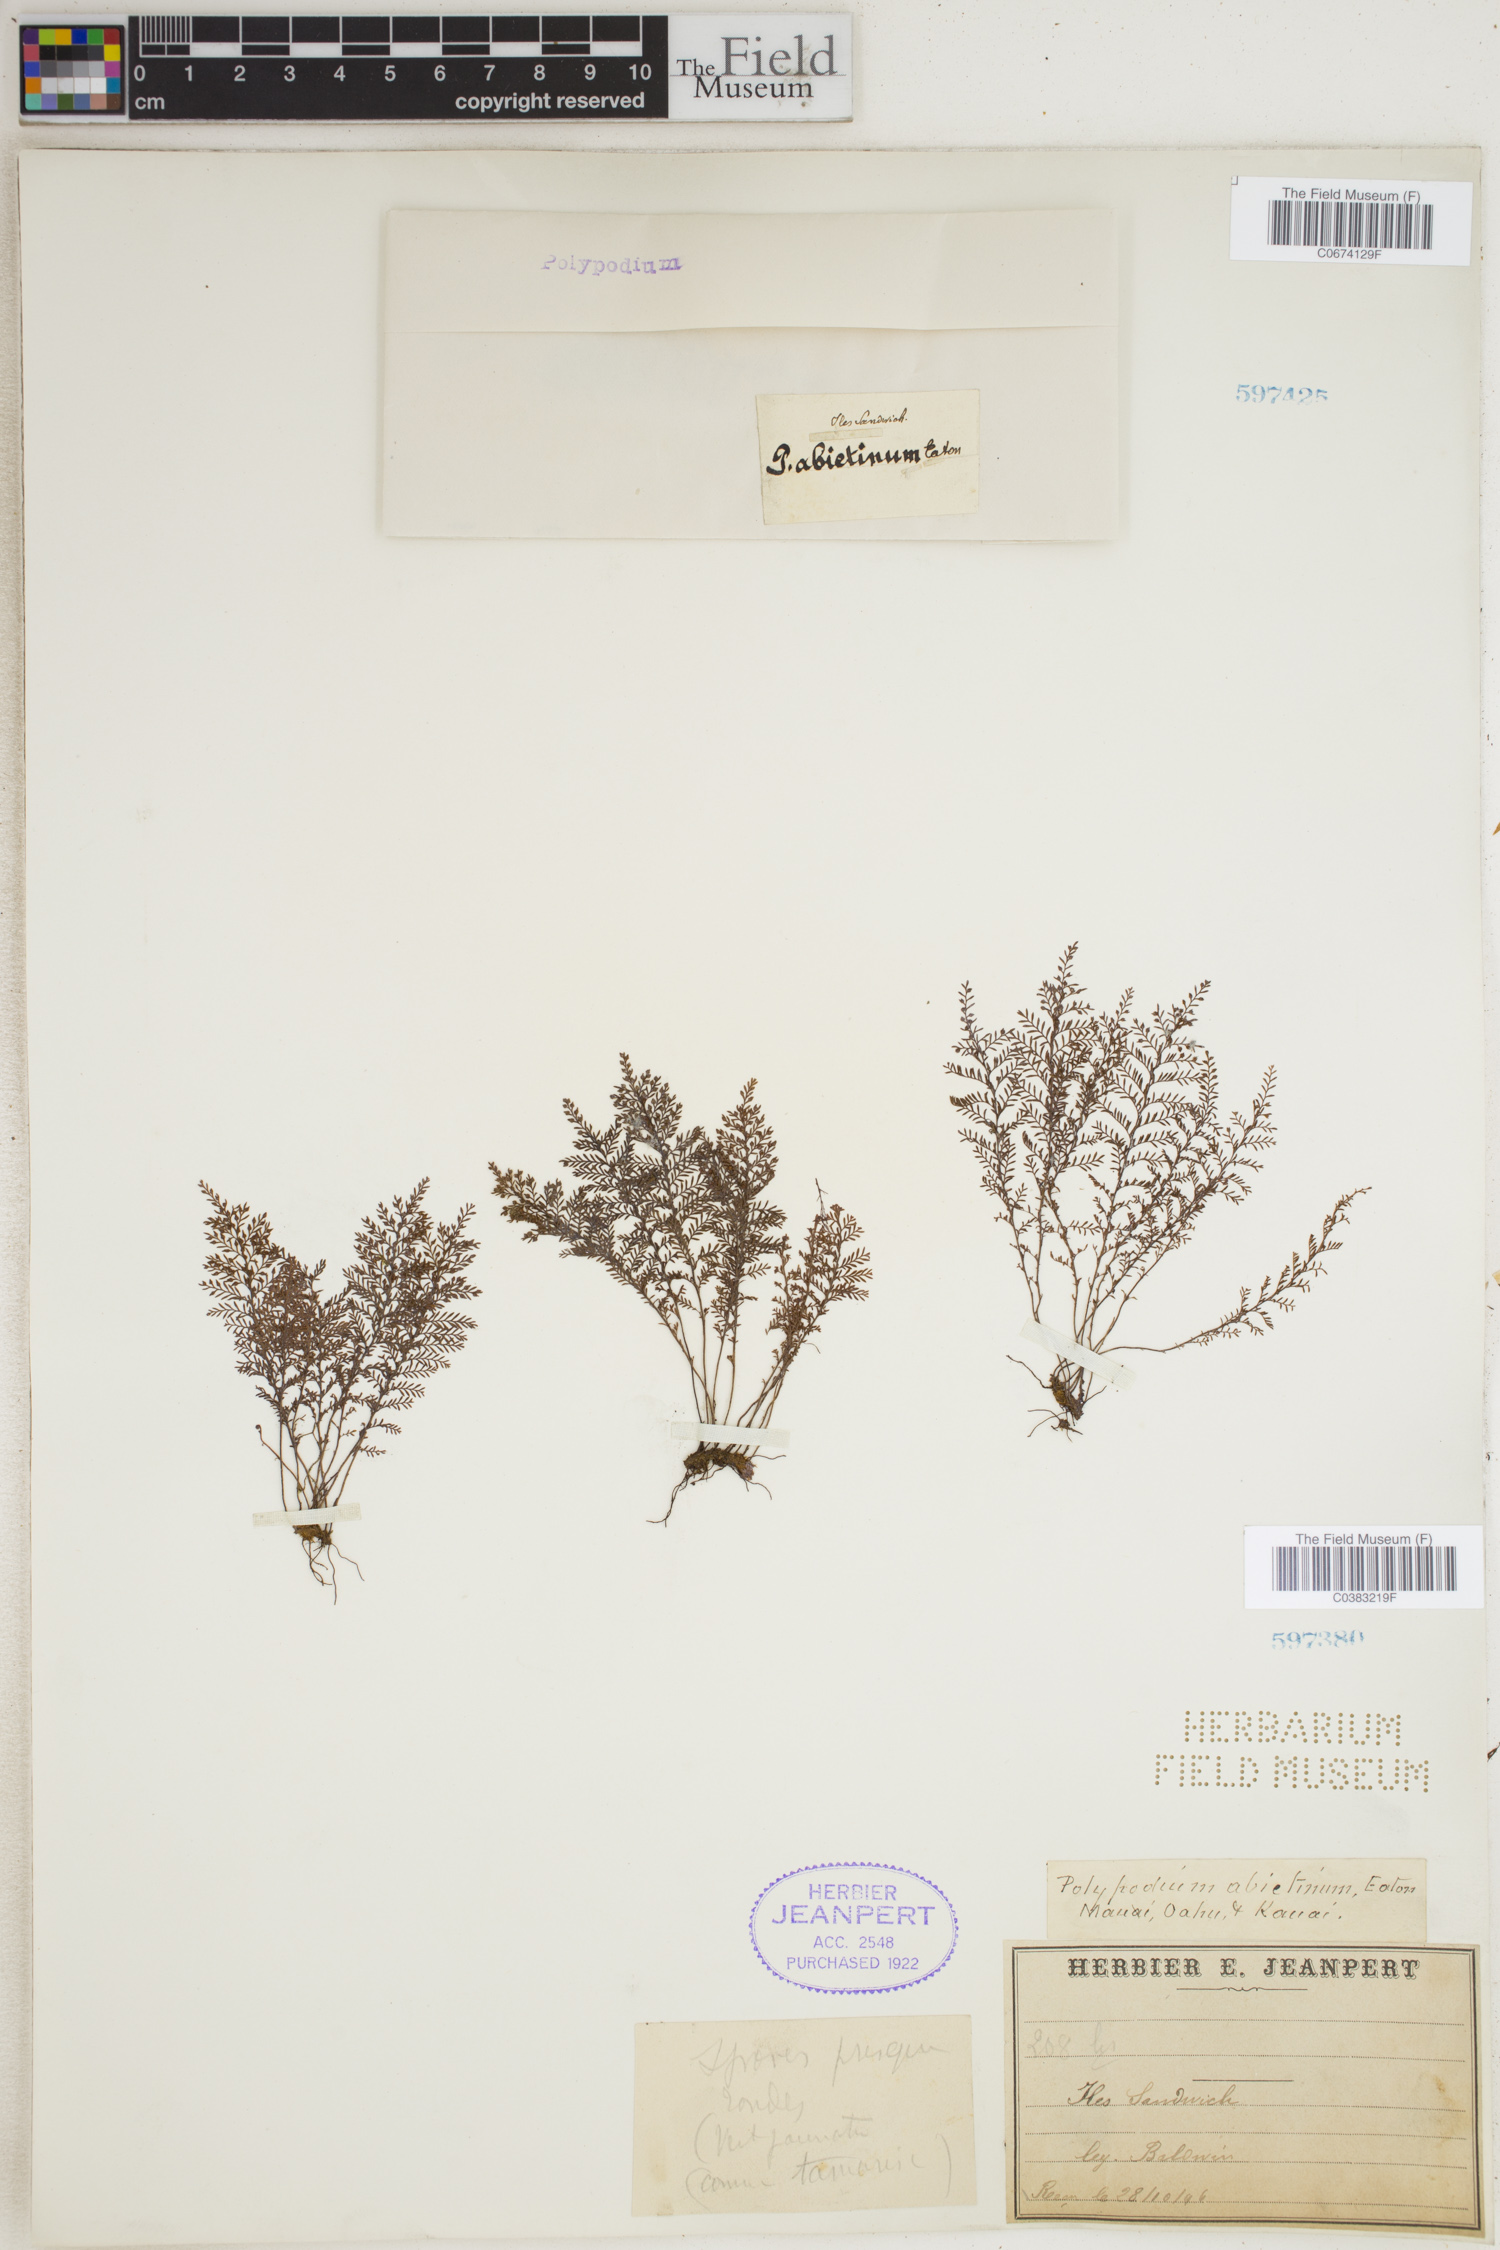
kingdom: Plantae
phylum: Tracheophyta
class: Polypodiopsida
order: Polypodiales
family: Polypodiaceae
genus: Adenophorus
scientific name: Adenophorus abietinus
